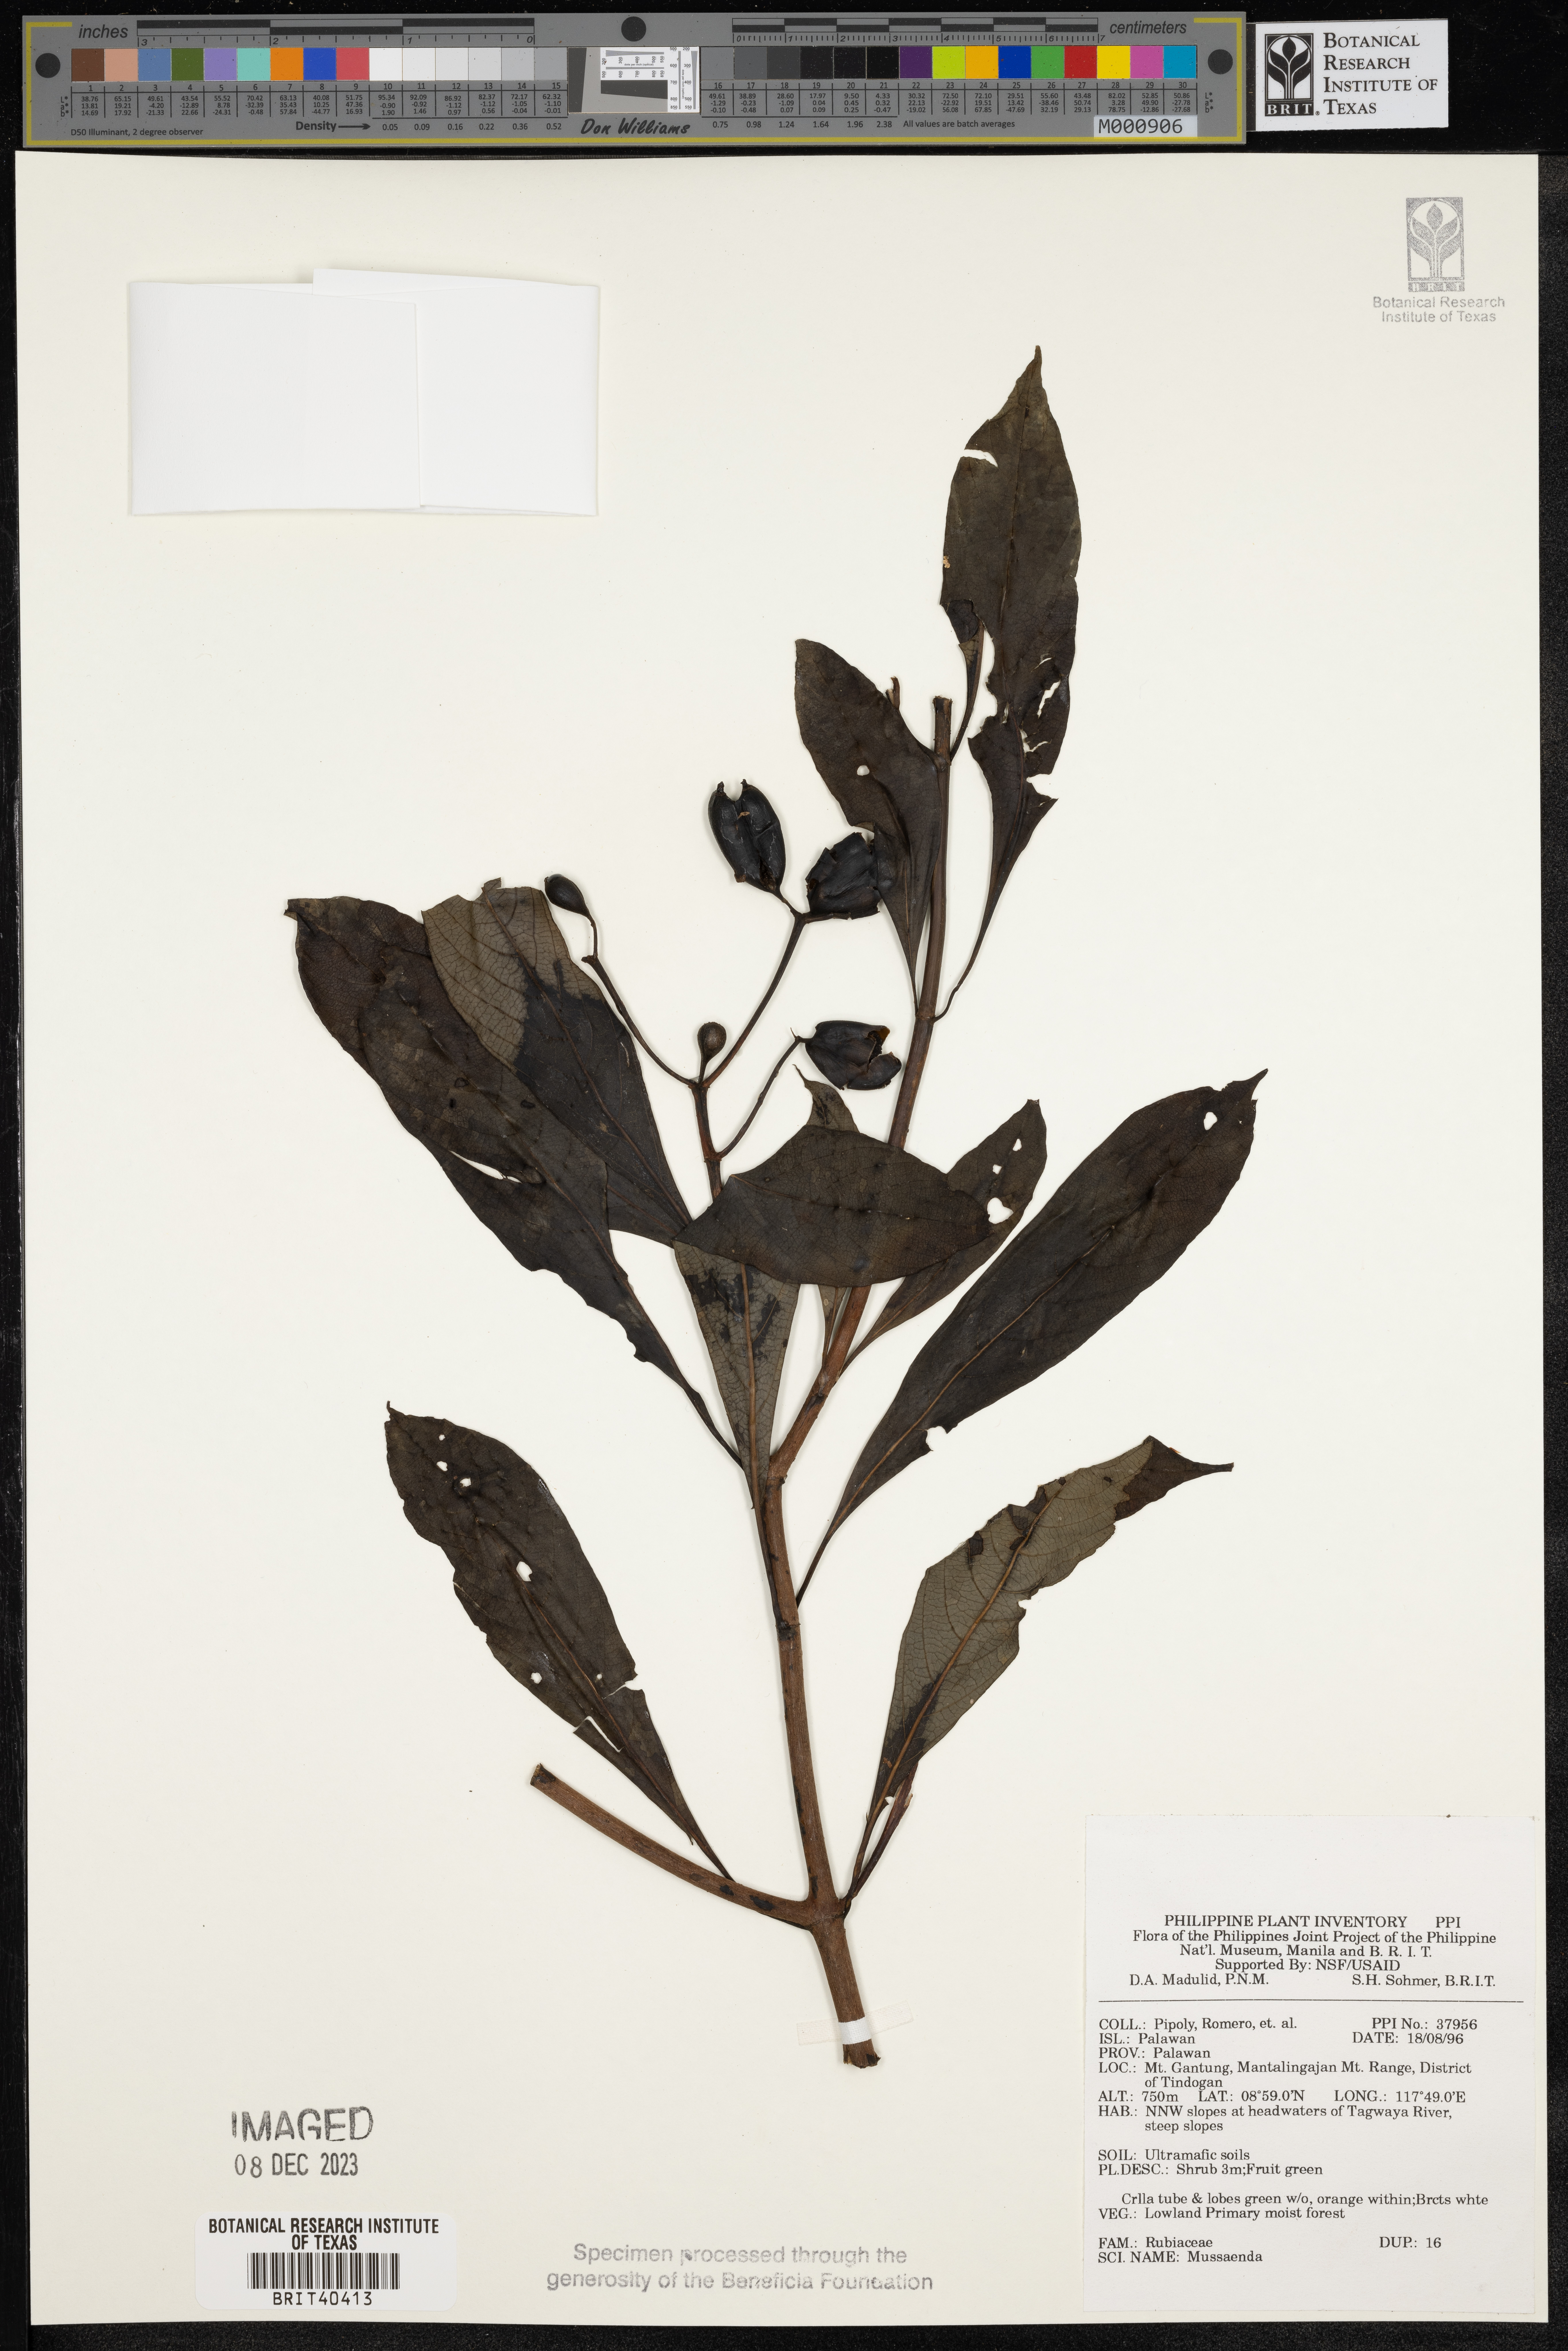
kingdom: Plantae
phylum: Tracheophyta
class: Magnoliopsida
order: Gentianales
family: Rubiaceae
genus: Mussaenda
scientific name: Mussaenda
